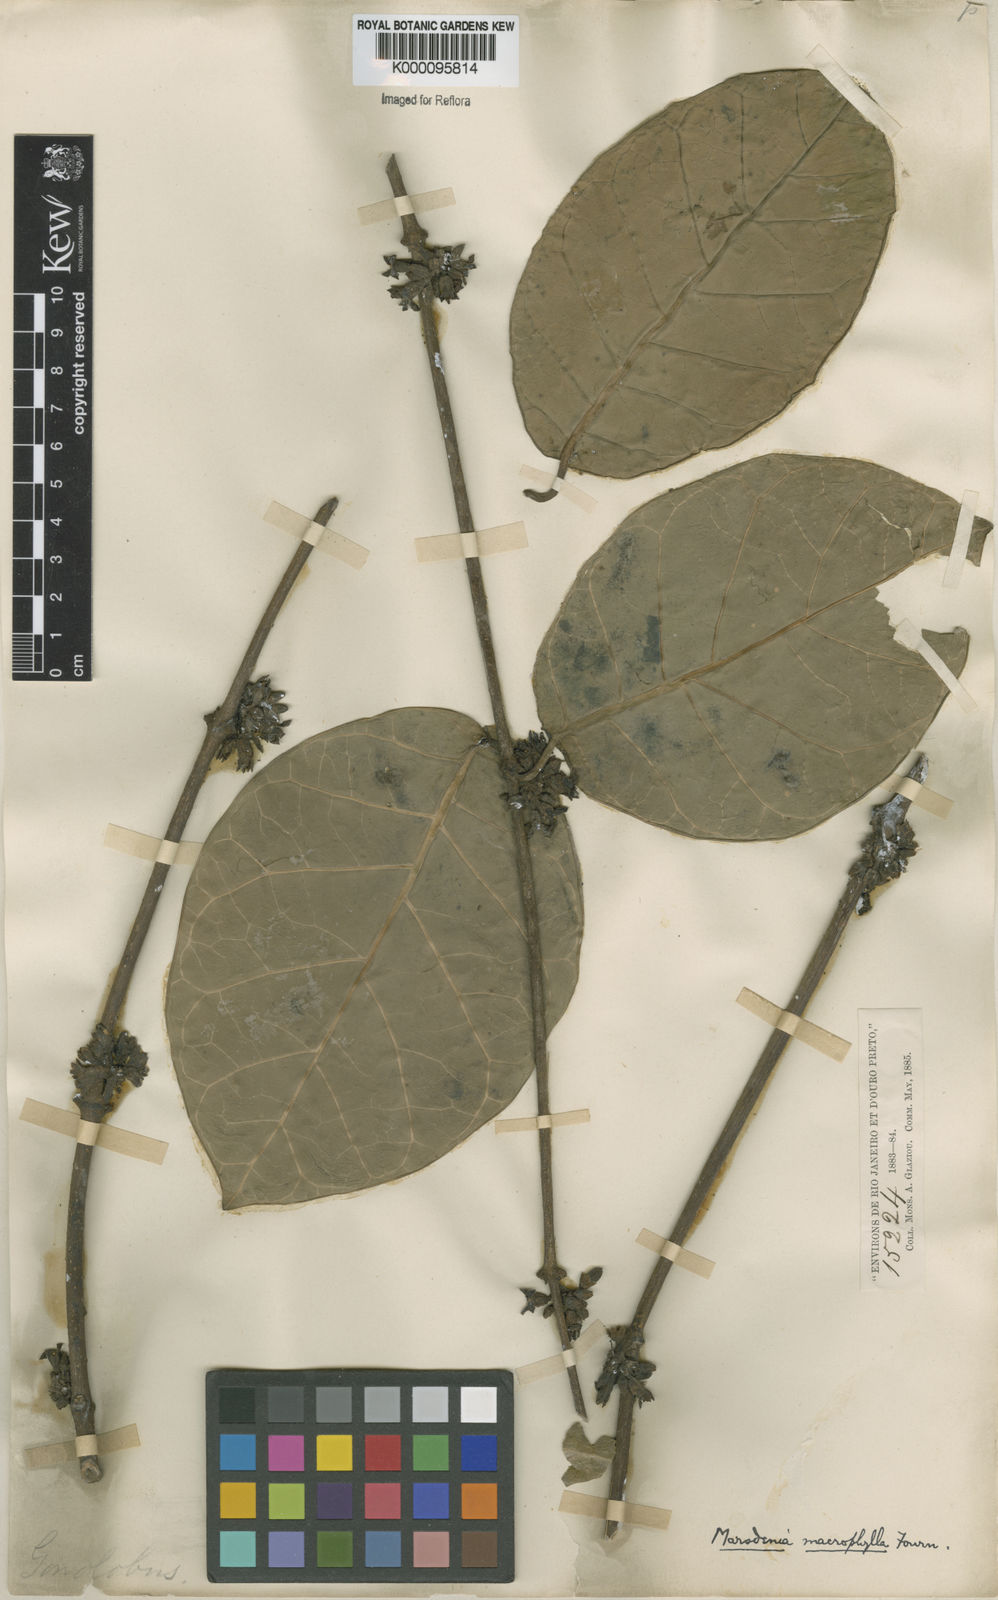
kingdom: Plantae
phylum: Tracheophyta
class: Magnoliopsida
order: Gentianales
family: Apocynaceae
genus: Ruehssia
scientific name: Ruehssia macrophylla
